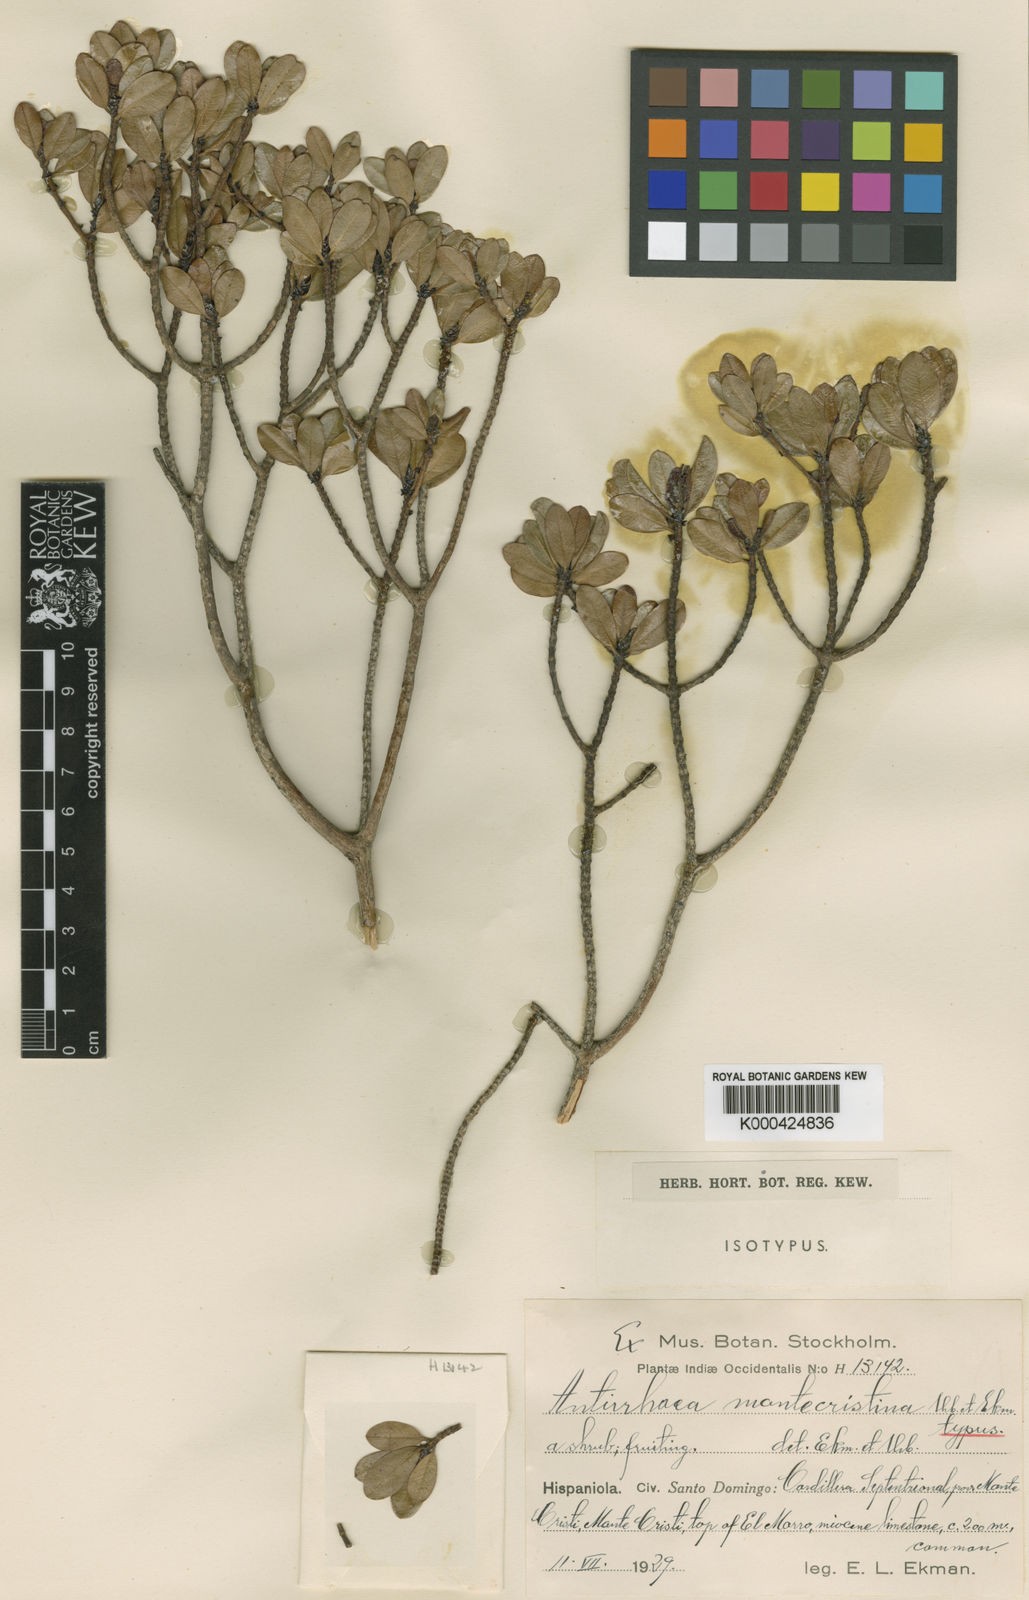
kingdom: Plantae
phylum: Tracheophyta
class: Magnoliopsida
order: Gentianales
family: Rubiaceae
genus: Stenostomum
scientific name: Stenostomum myrtifolium
